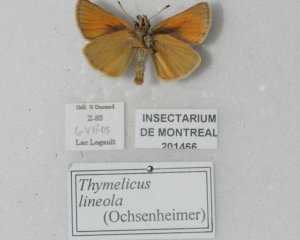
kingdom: Animalia
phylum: Arthropoda
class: Insecta
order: Lepidoptera
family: Hesperiidae
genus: Thymelicus
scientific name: Thymelicus lineola
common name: European Skipper
